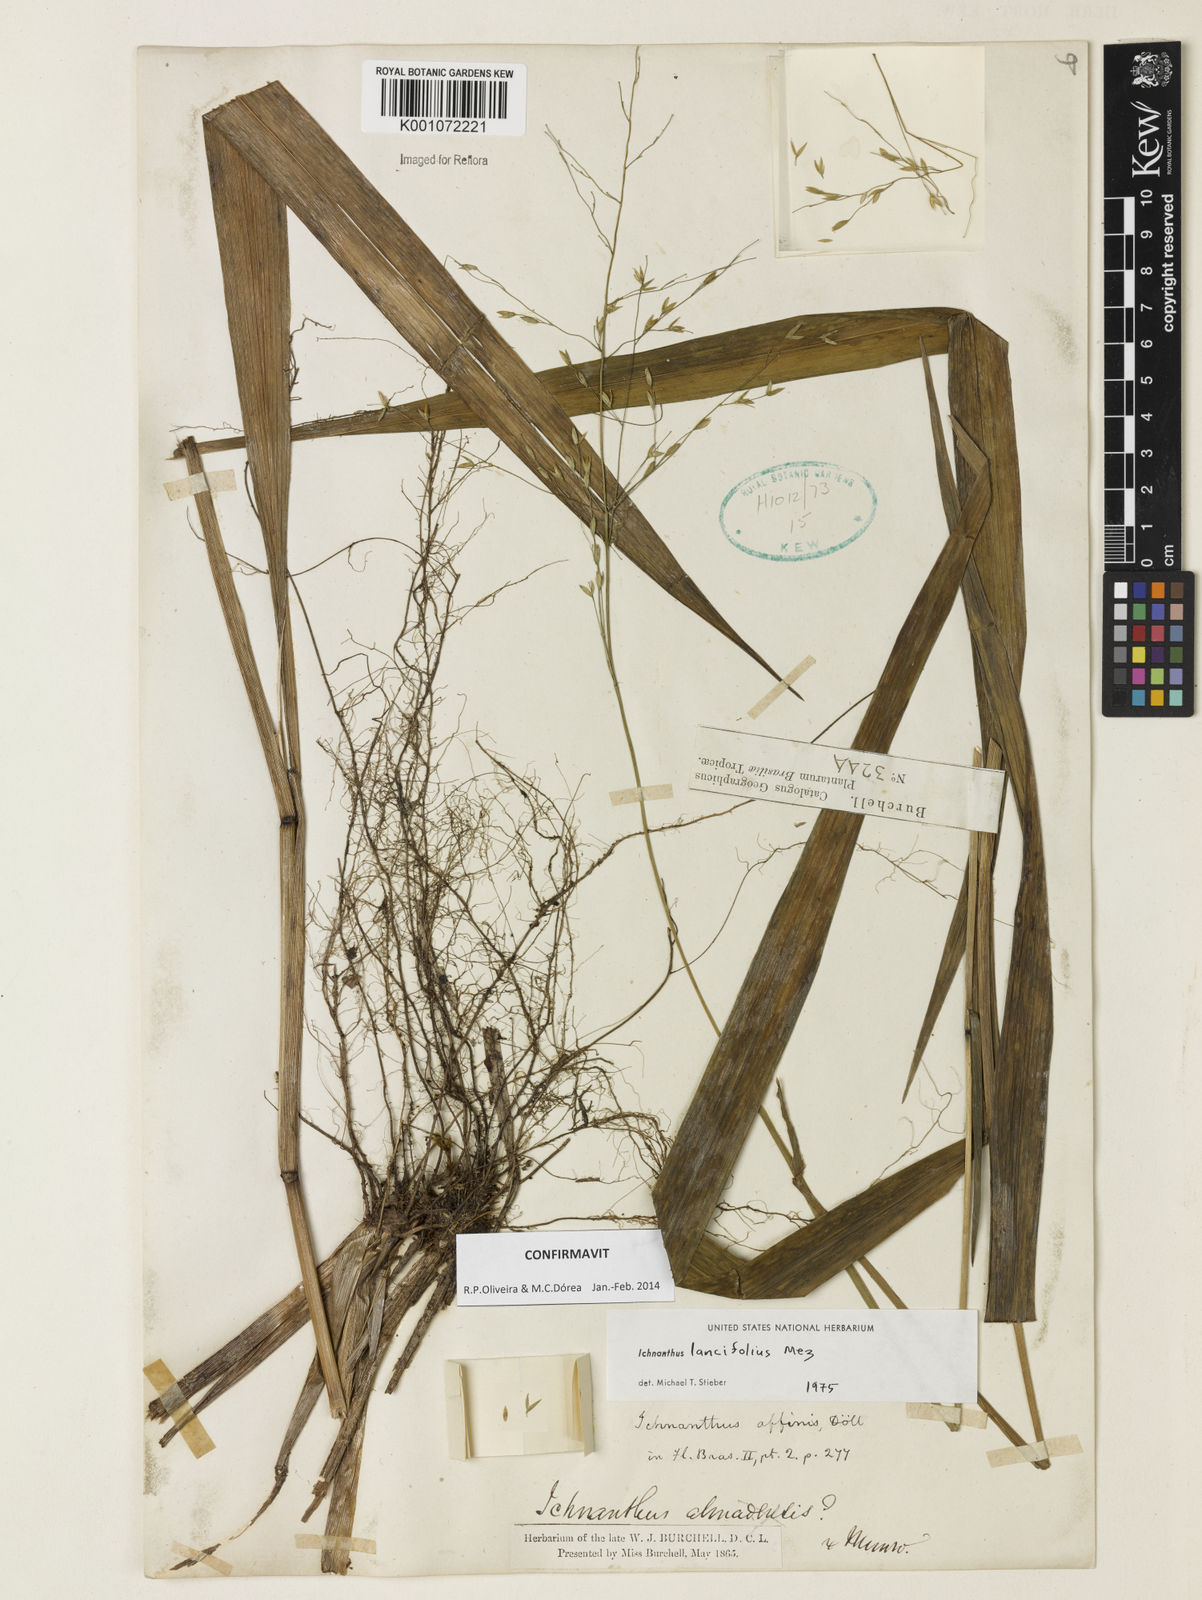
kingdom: Plantae
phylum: Tracheophyta
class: Liliopsida
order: Poales
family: Poaceae
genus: Ichnanthus
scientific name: Ichnanthus lancifolius
